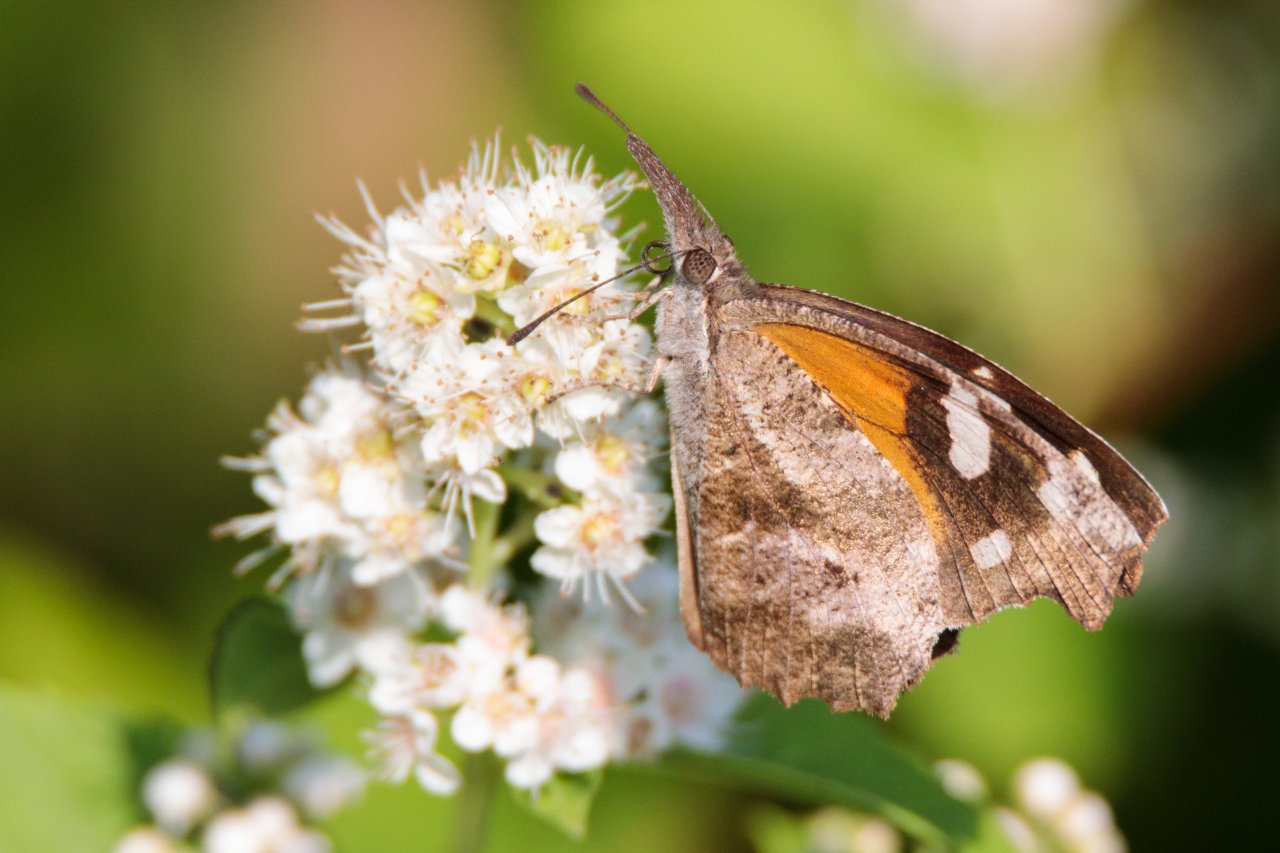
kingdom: Animalia
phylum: Arthropoda
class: Insecta
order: Lepidoptera
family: Nymphalidae
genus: Libytheana
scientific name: Libytheana carinenta
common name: American Snout
